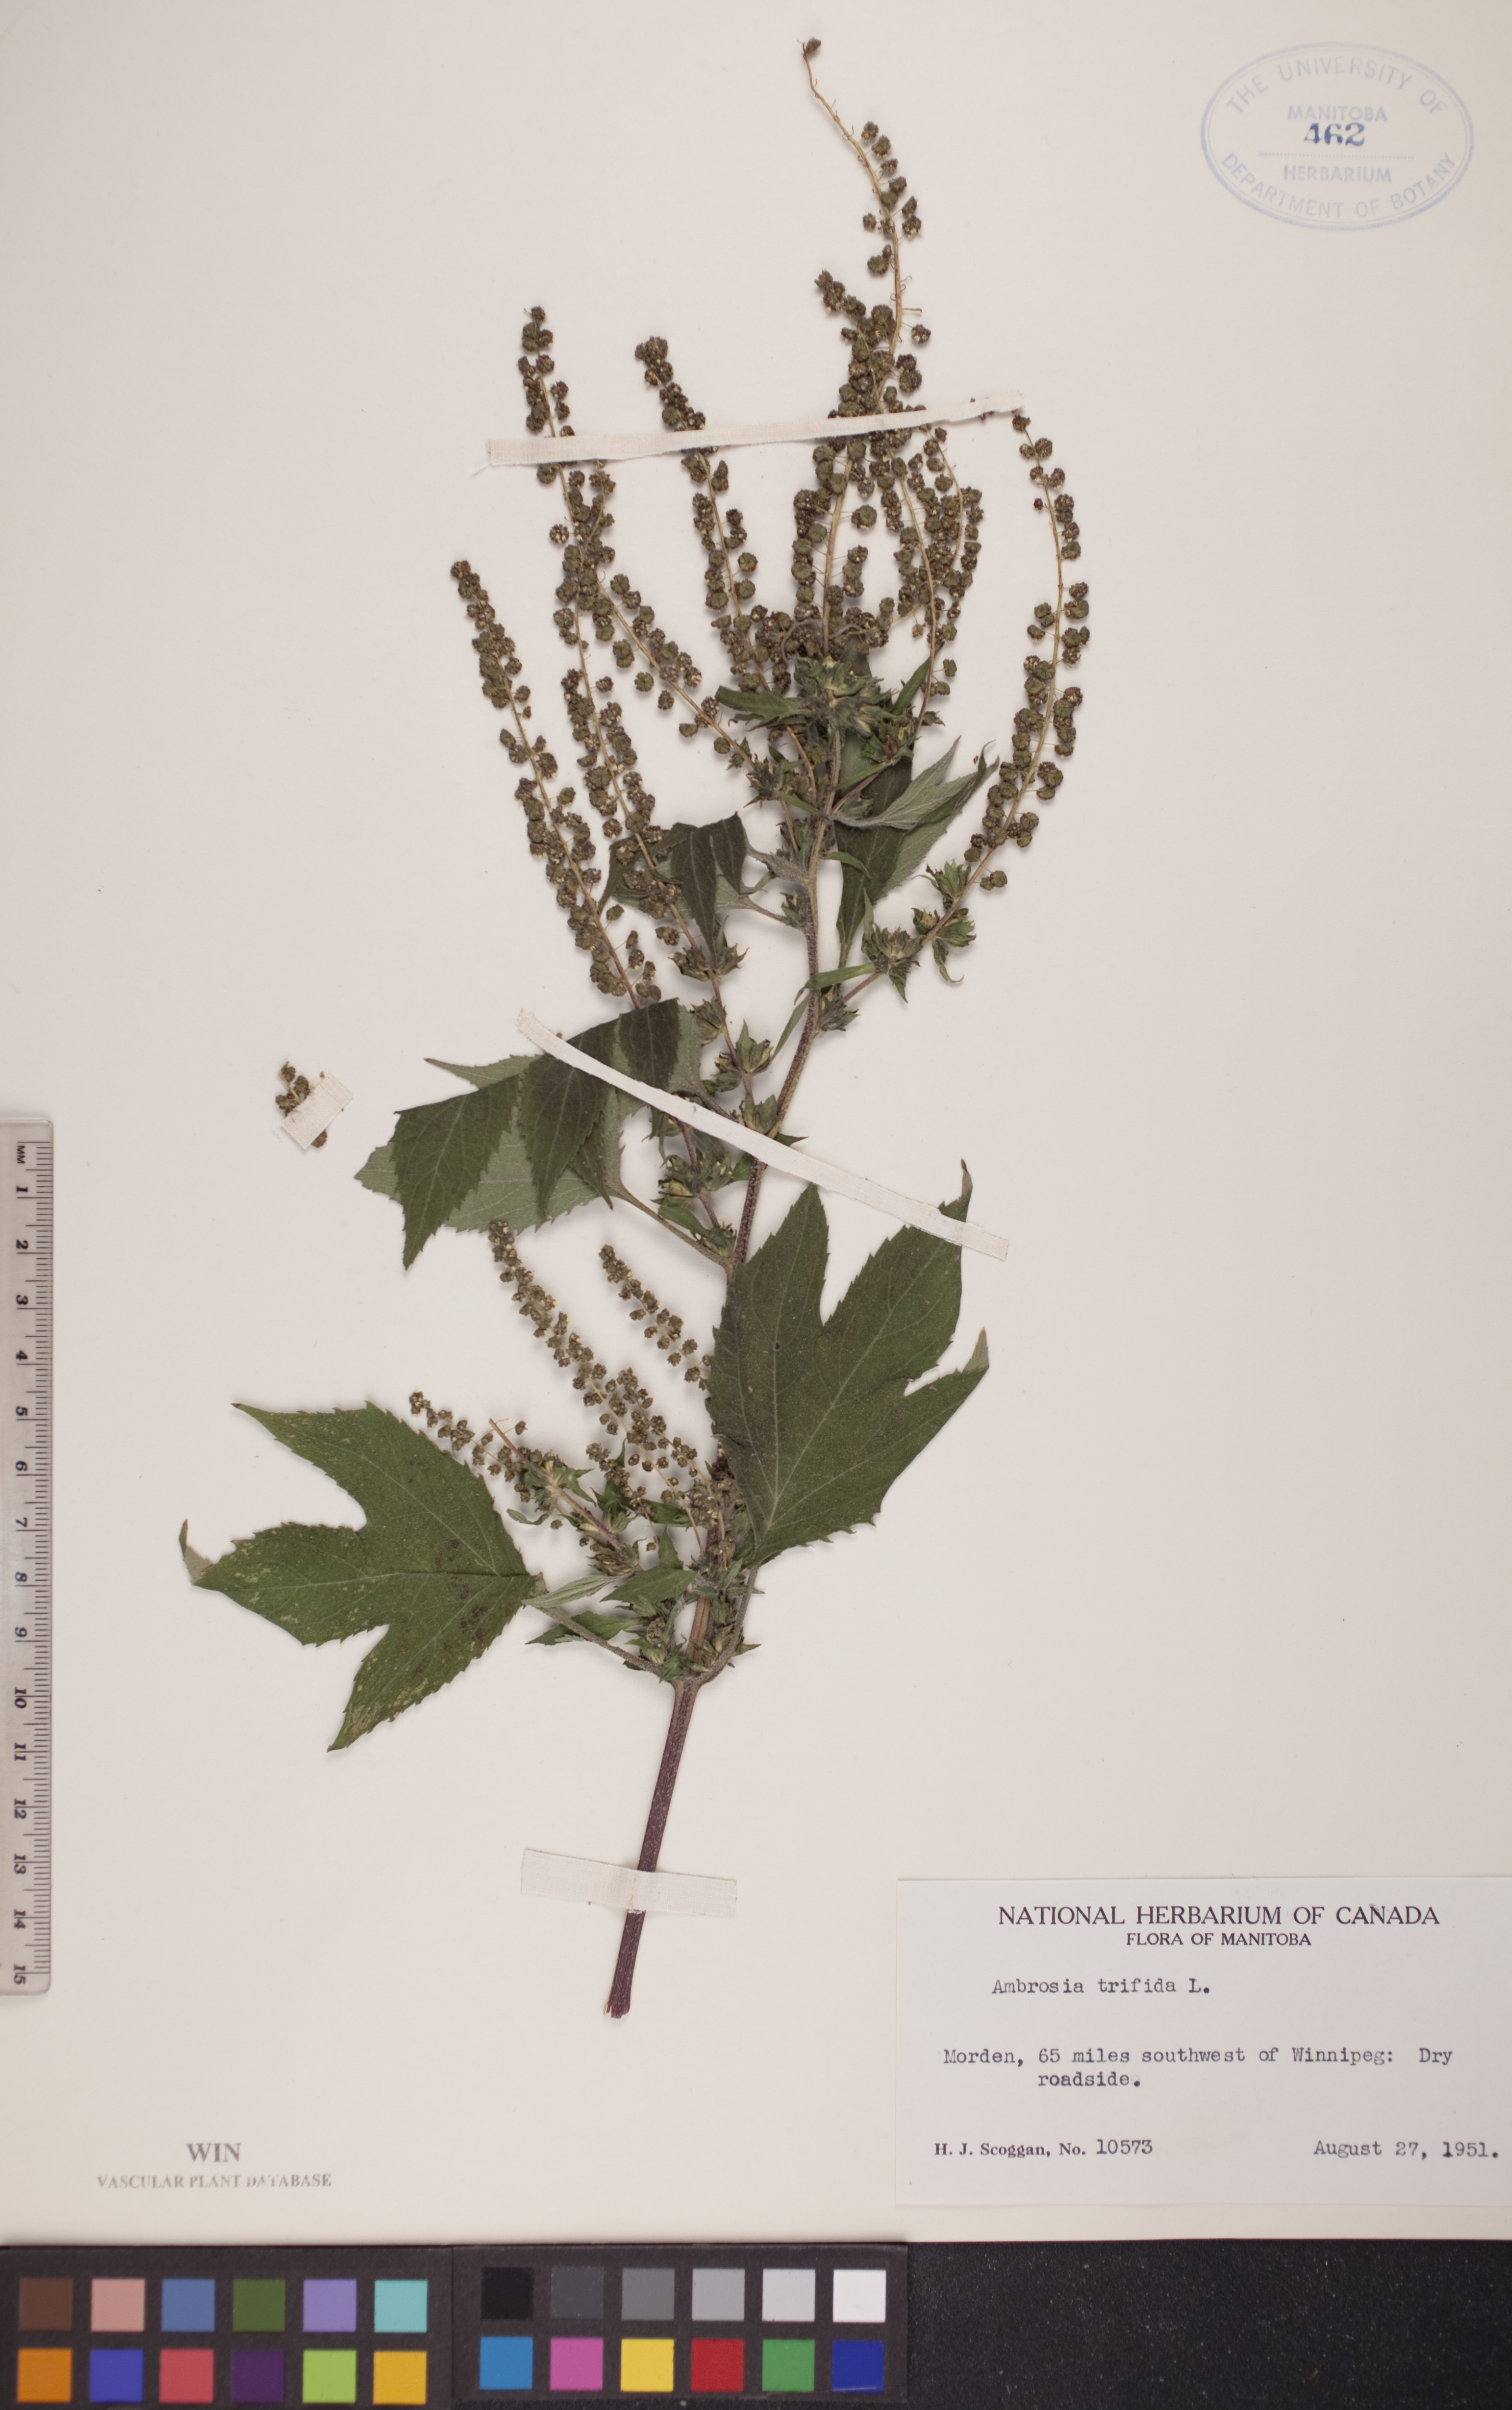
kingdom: Plantae
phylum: Tracheophyta
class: Magnoliopsida
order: Asterales
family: Asteraceae
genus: Ambrosia
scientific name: Ambrosia trifida
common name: Giant ragweed
